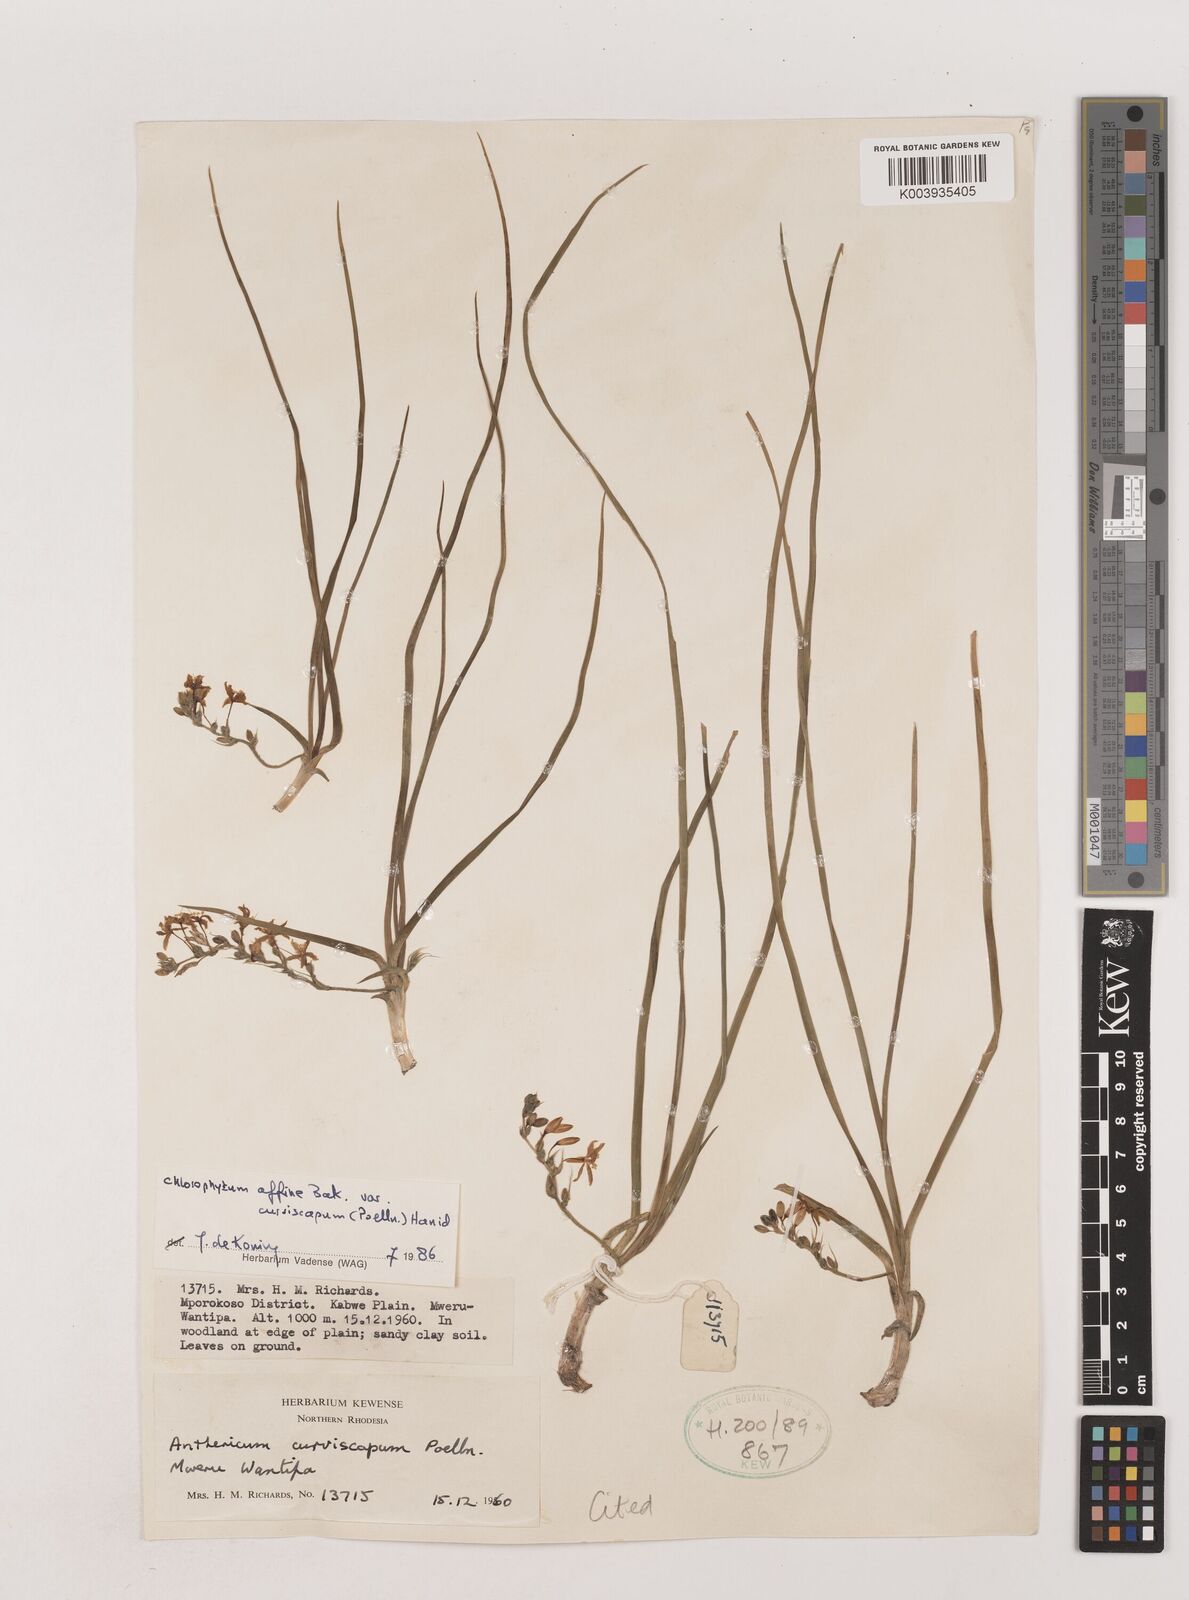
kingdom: Plantae
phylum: Tracheophyta
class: Liliopsida
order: Asparagales
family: Asparagaceae
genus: Chlorophytum
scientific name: Chlorophytum tordense
